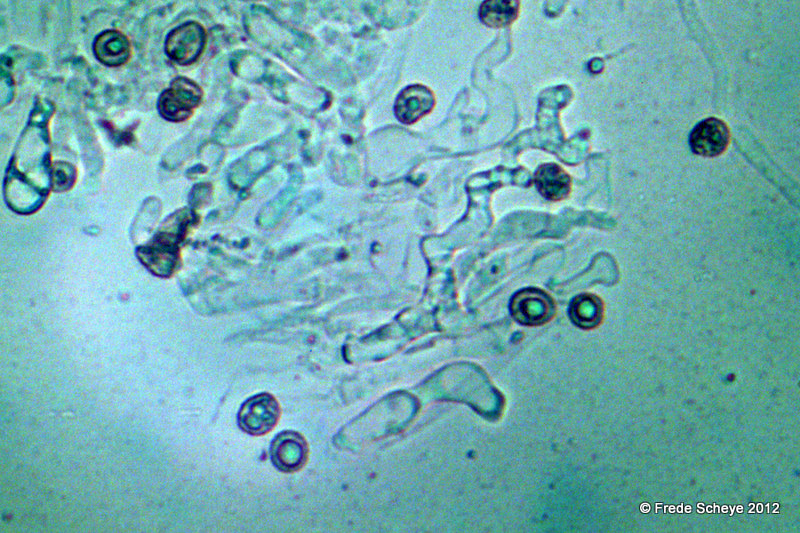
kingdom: Fungi
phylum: Basidiomycota
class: Agaricomycetes
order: Agaricales
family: Crepidotaceae
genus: Crepidotus
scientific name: Crepidotus cesatii
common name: almindelig muslingesvamp
